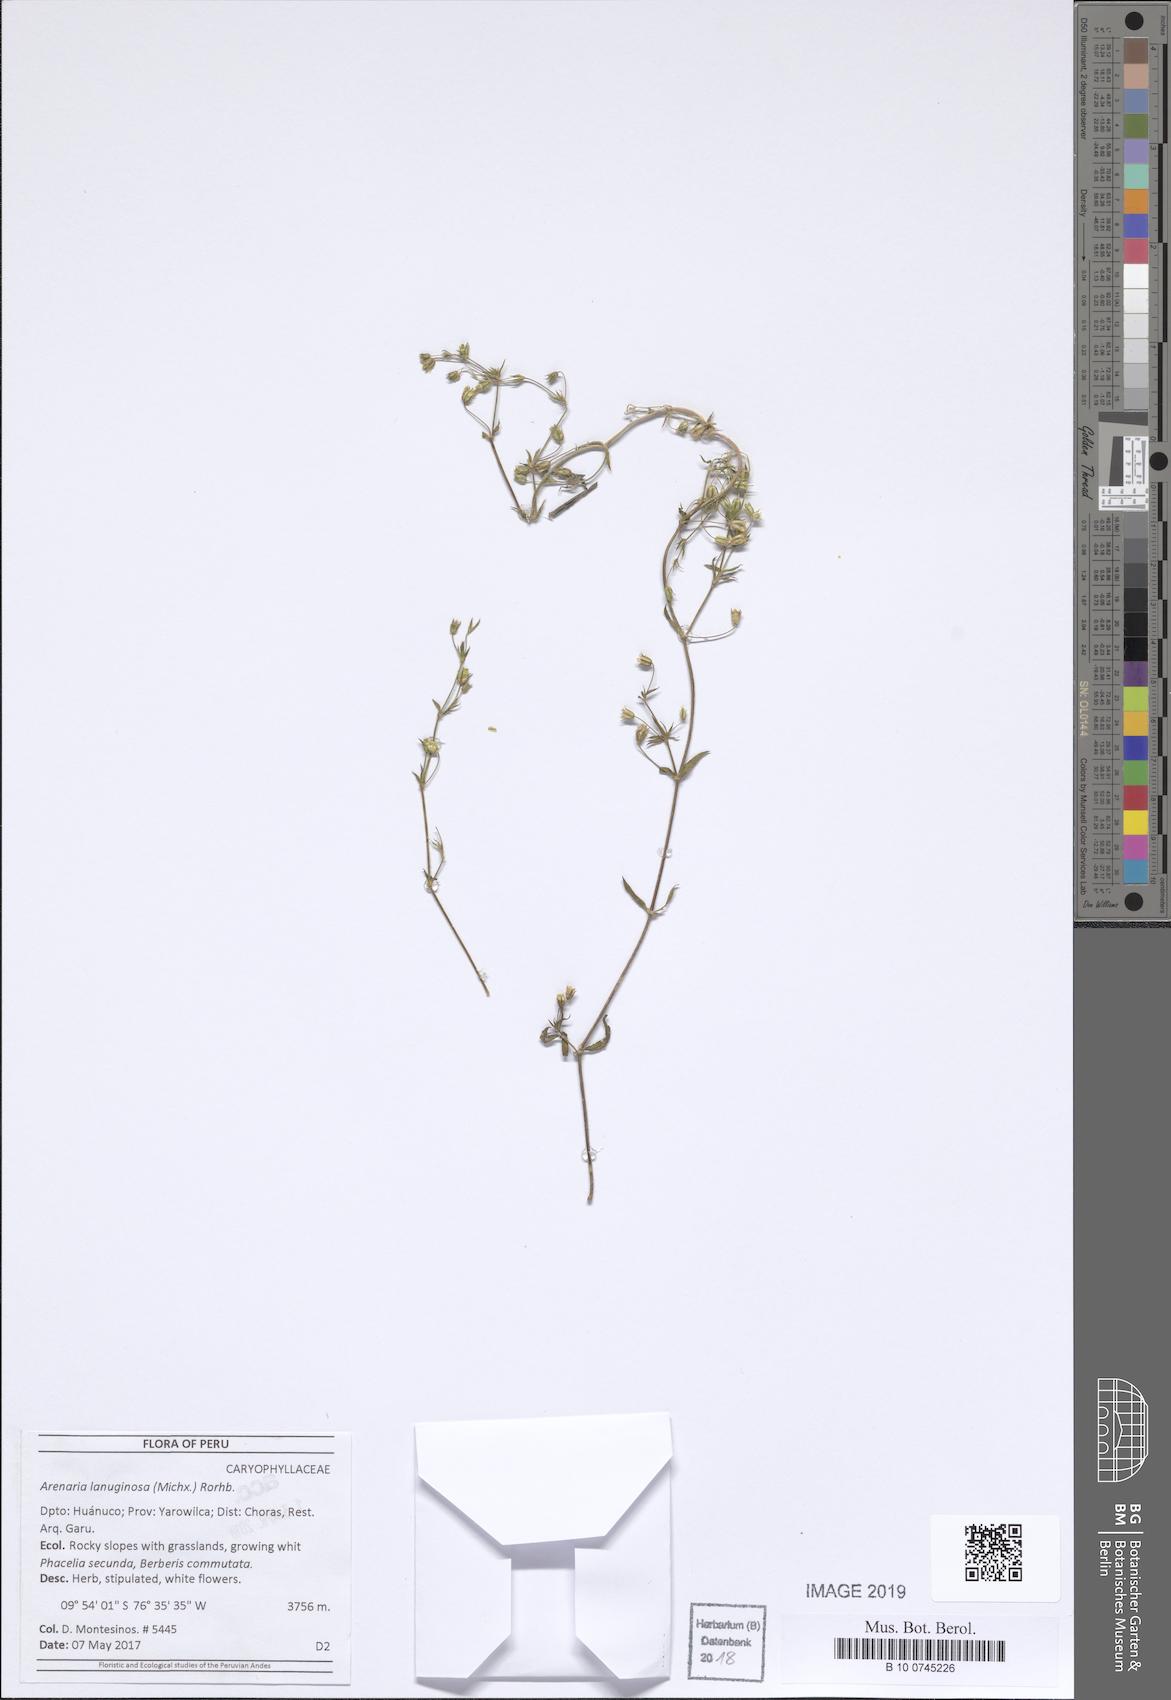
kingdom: Plantae
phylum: Tracheophyta
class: Magnoliopsida
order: Caryophyllales
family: Caryophyllaceae
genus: Arenaria
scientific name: Arenaria lanuginosa
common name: Spread sandwort
